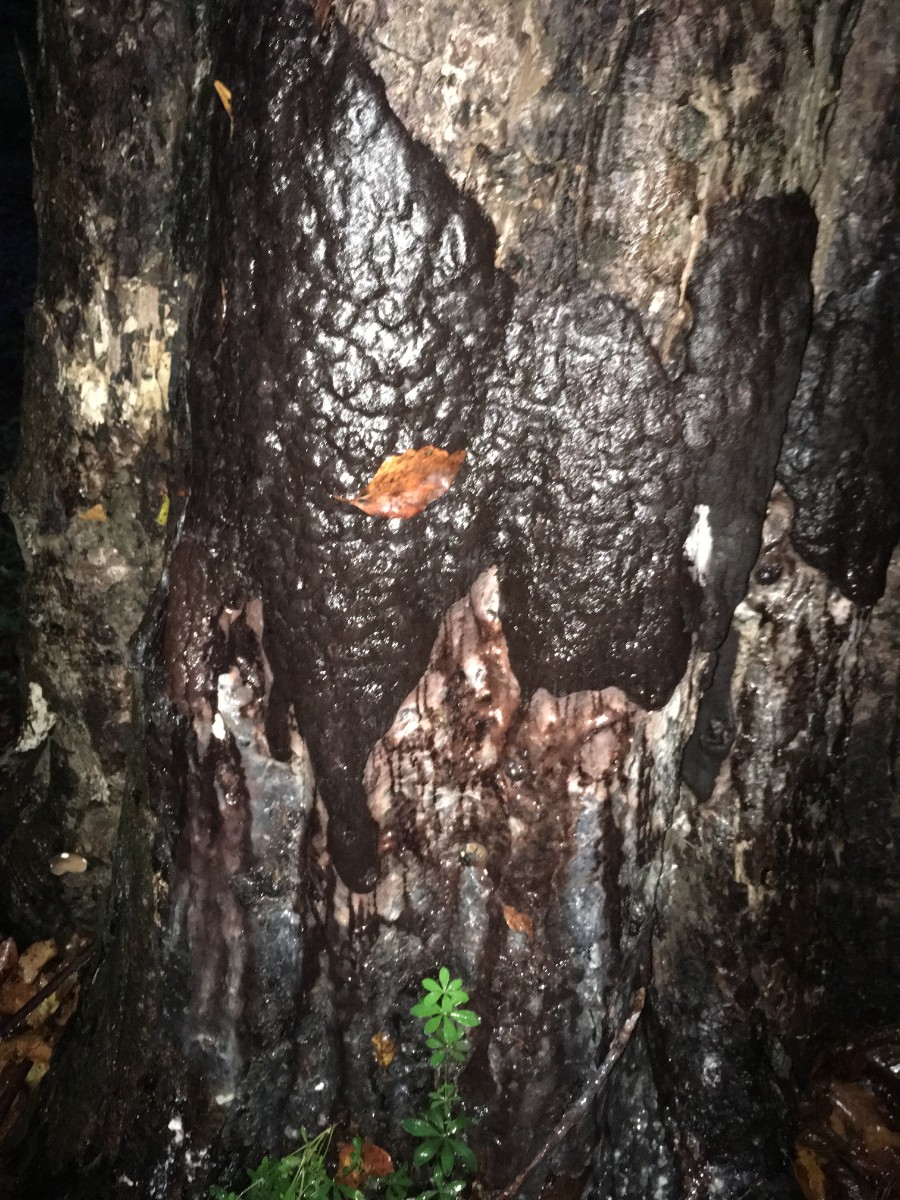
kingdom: Protozoa
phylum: Mycetozoa
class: Myxomycetes
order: Stemonitidales
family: Stemonitidaceae
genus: Brefeldia
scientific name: Brefeldia maxima
